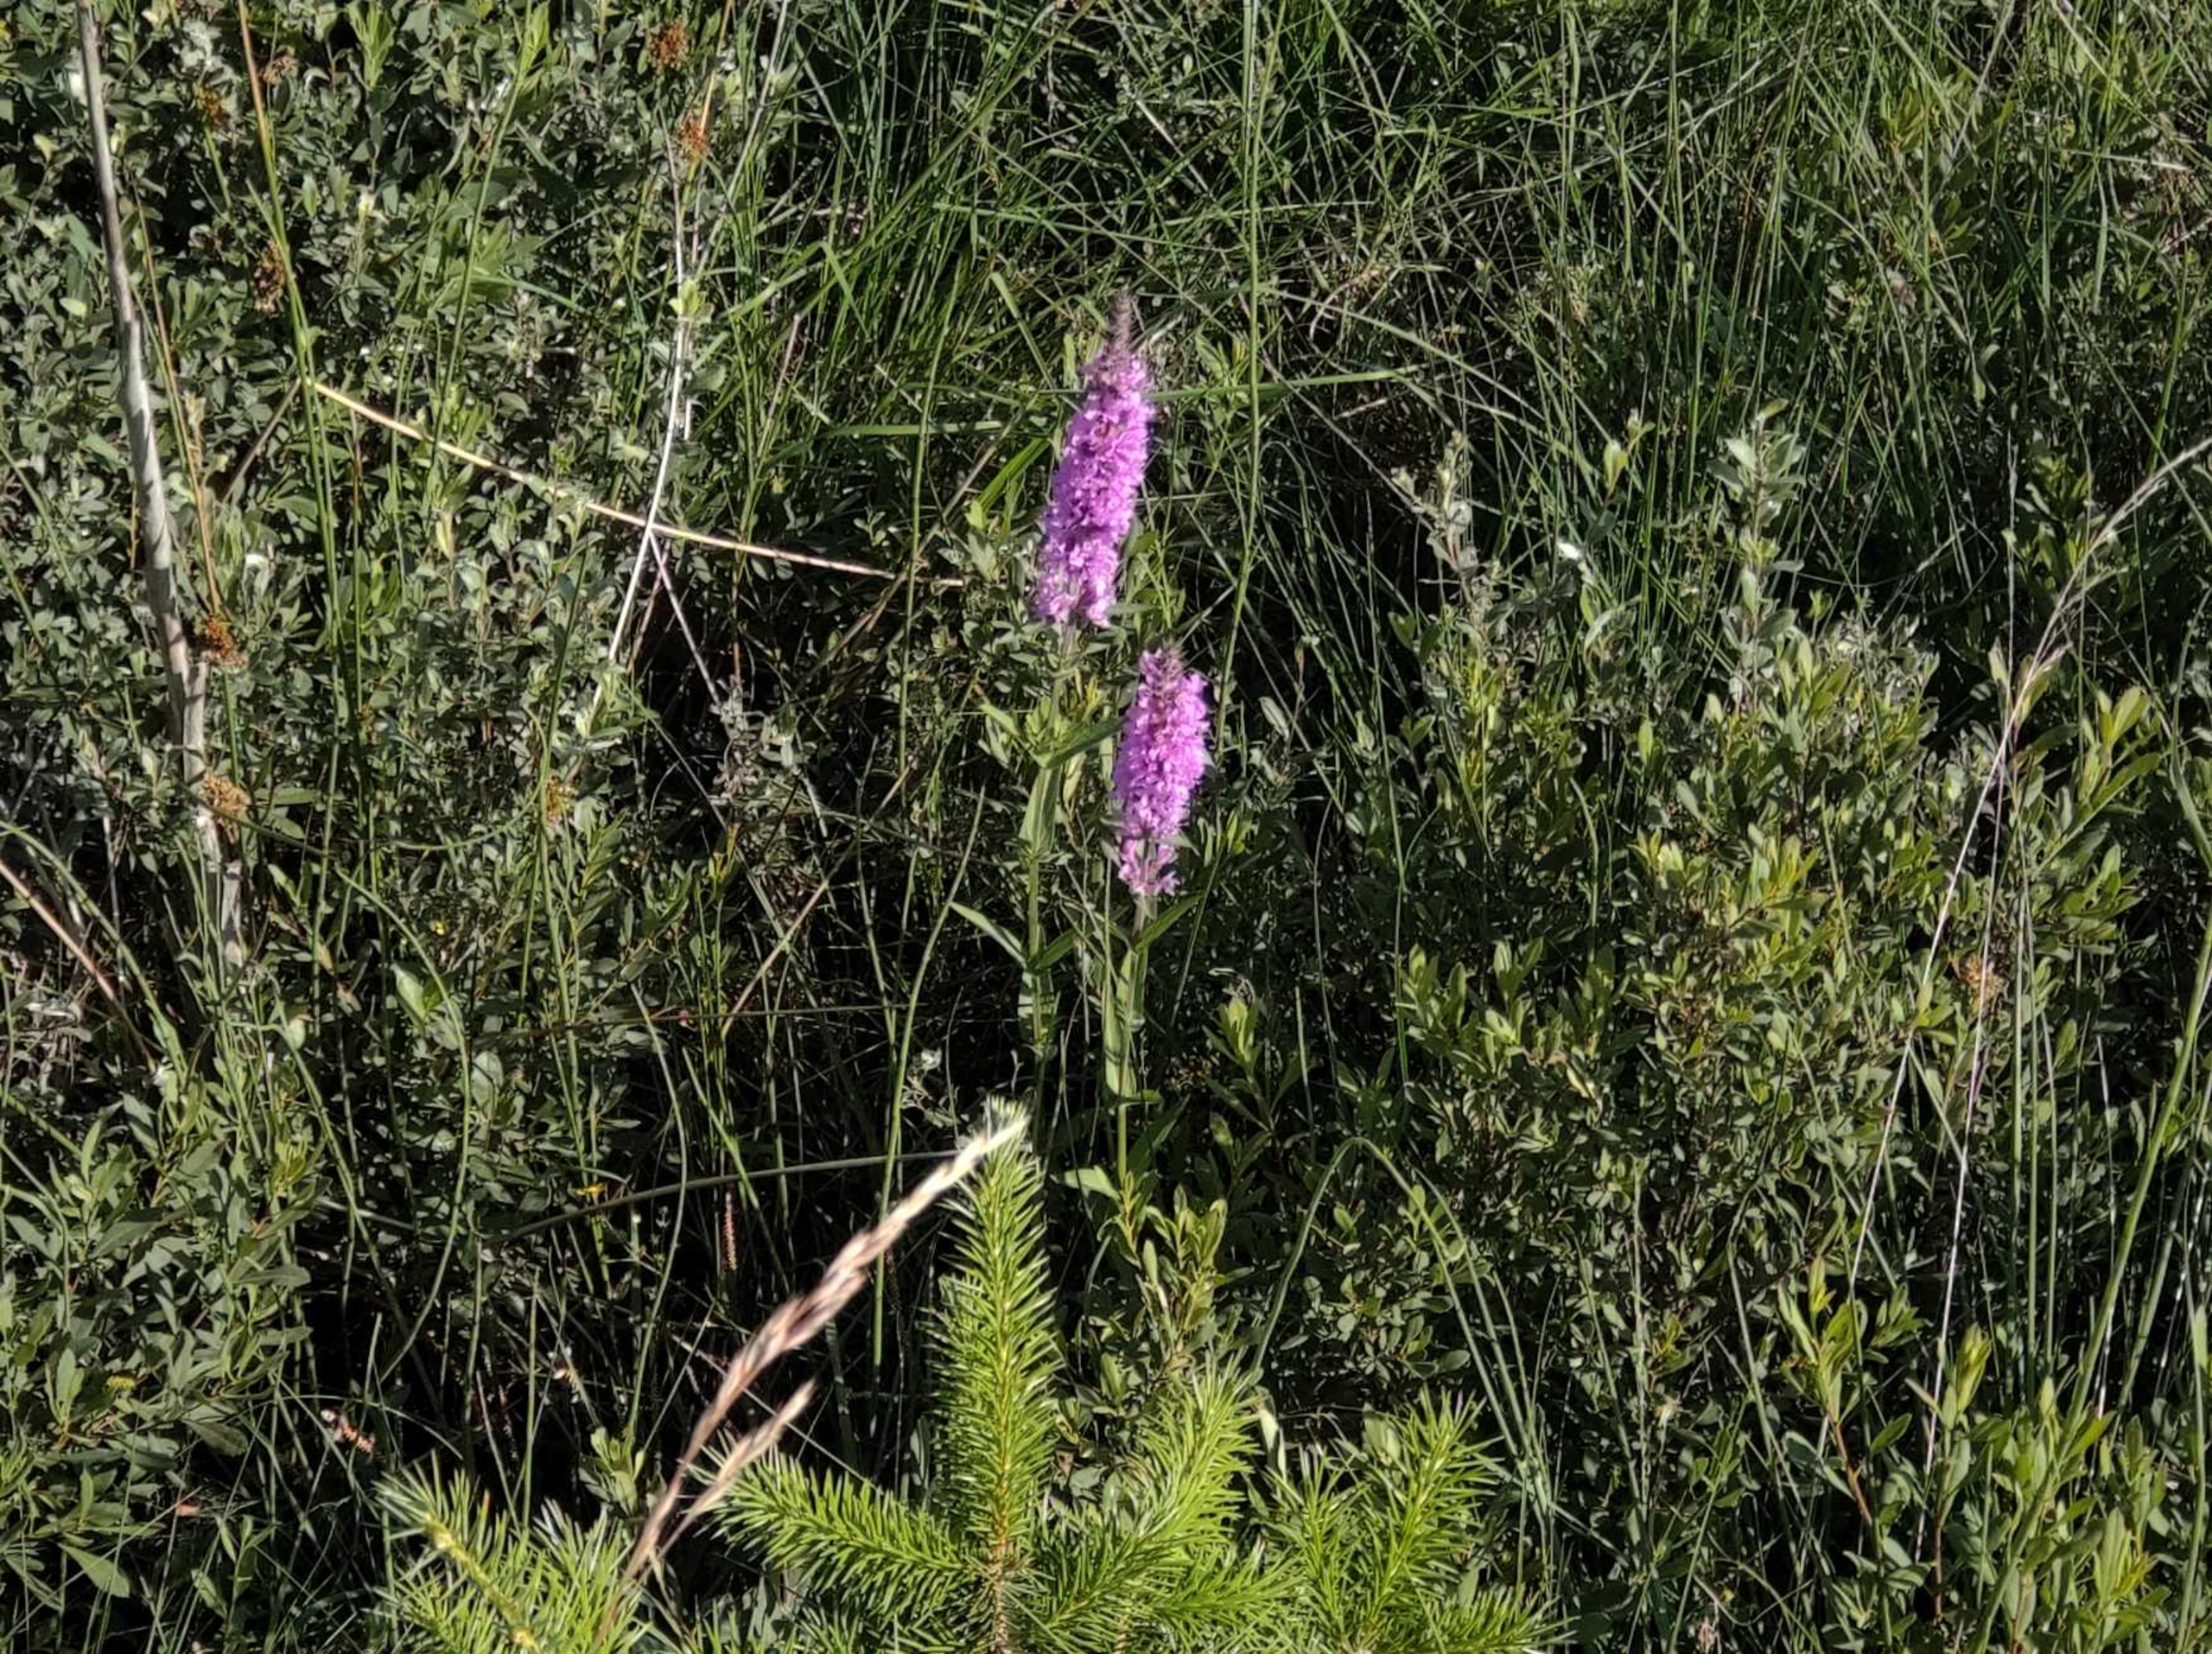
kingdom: Plantae
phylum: Tracheophyta
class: Magnoliopsida
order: Myrtales
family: Lythraceae
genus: Lythrum
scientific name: Lythrum salicaria
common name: Kattehale
